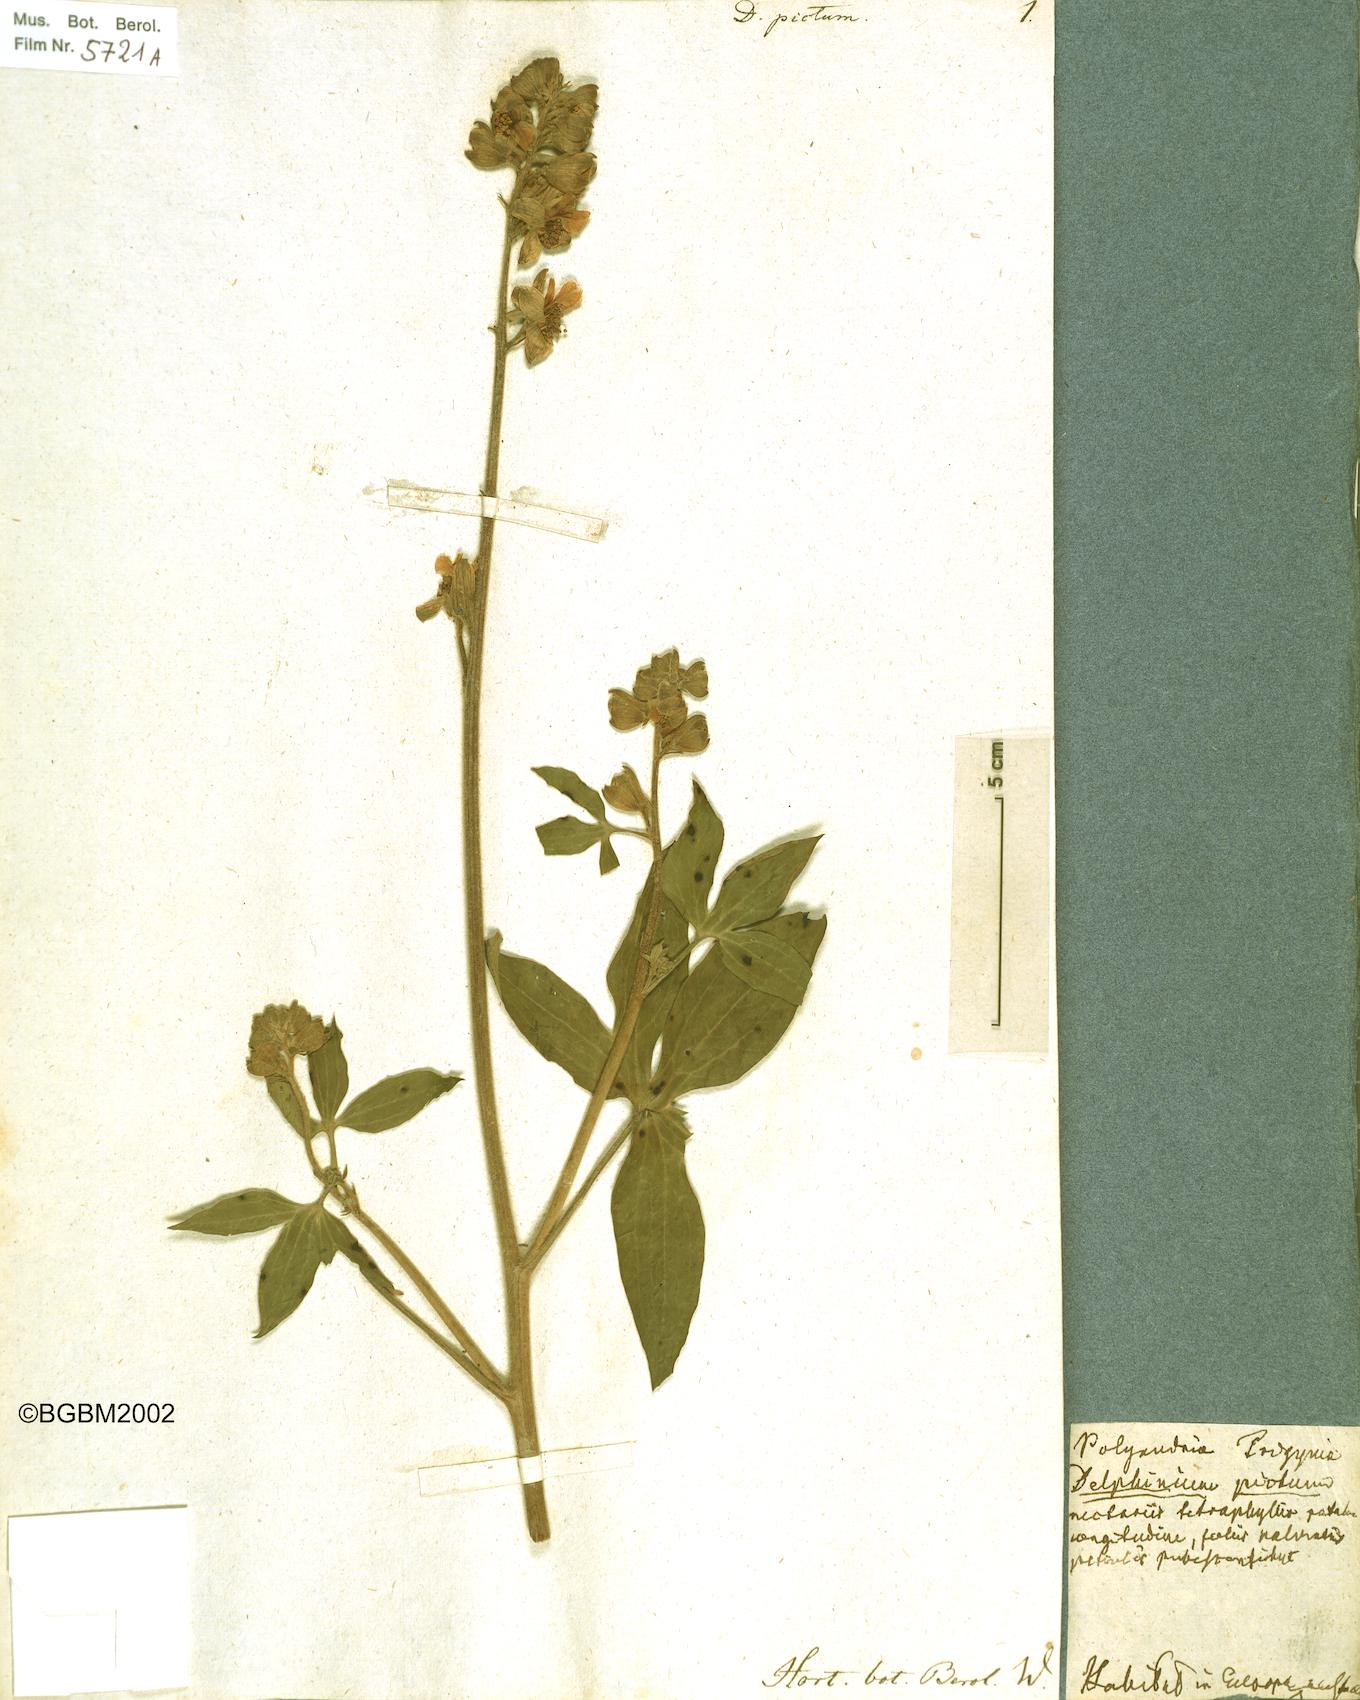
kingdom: Plantae
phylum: Tracheophyta
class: Magnoliopsida
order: Ranunculales
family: Ranunculaceae
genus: Staphisagria
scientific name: Staphisagria picta
